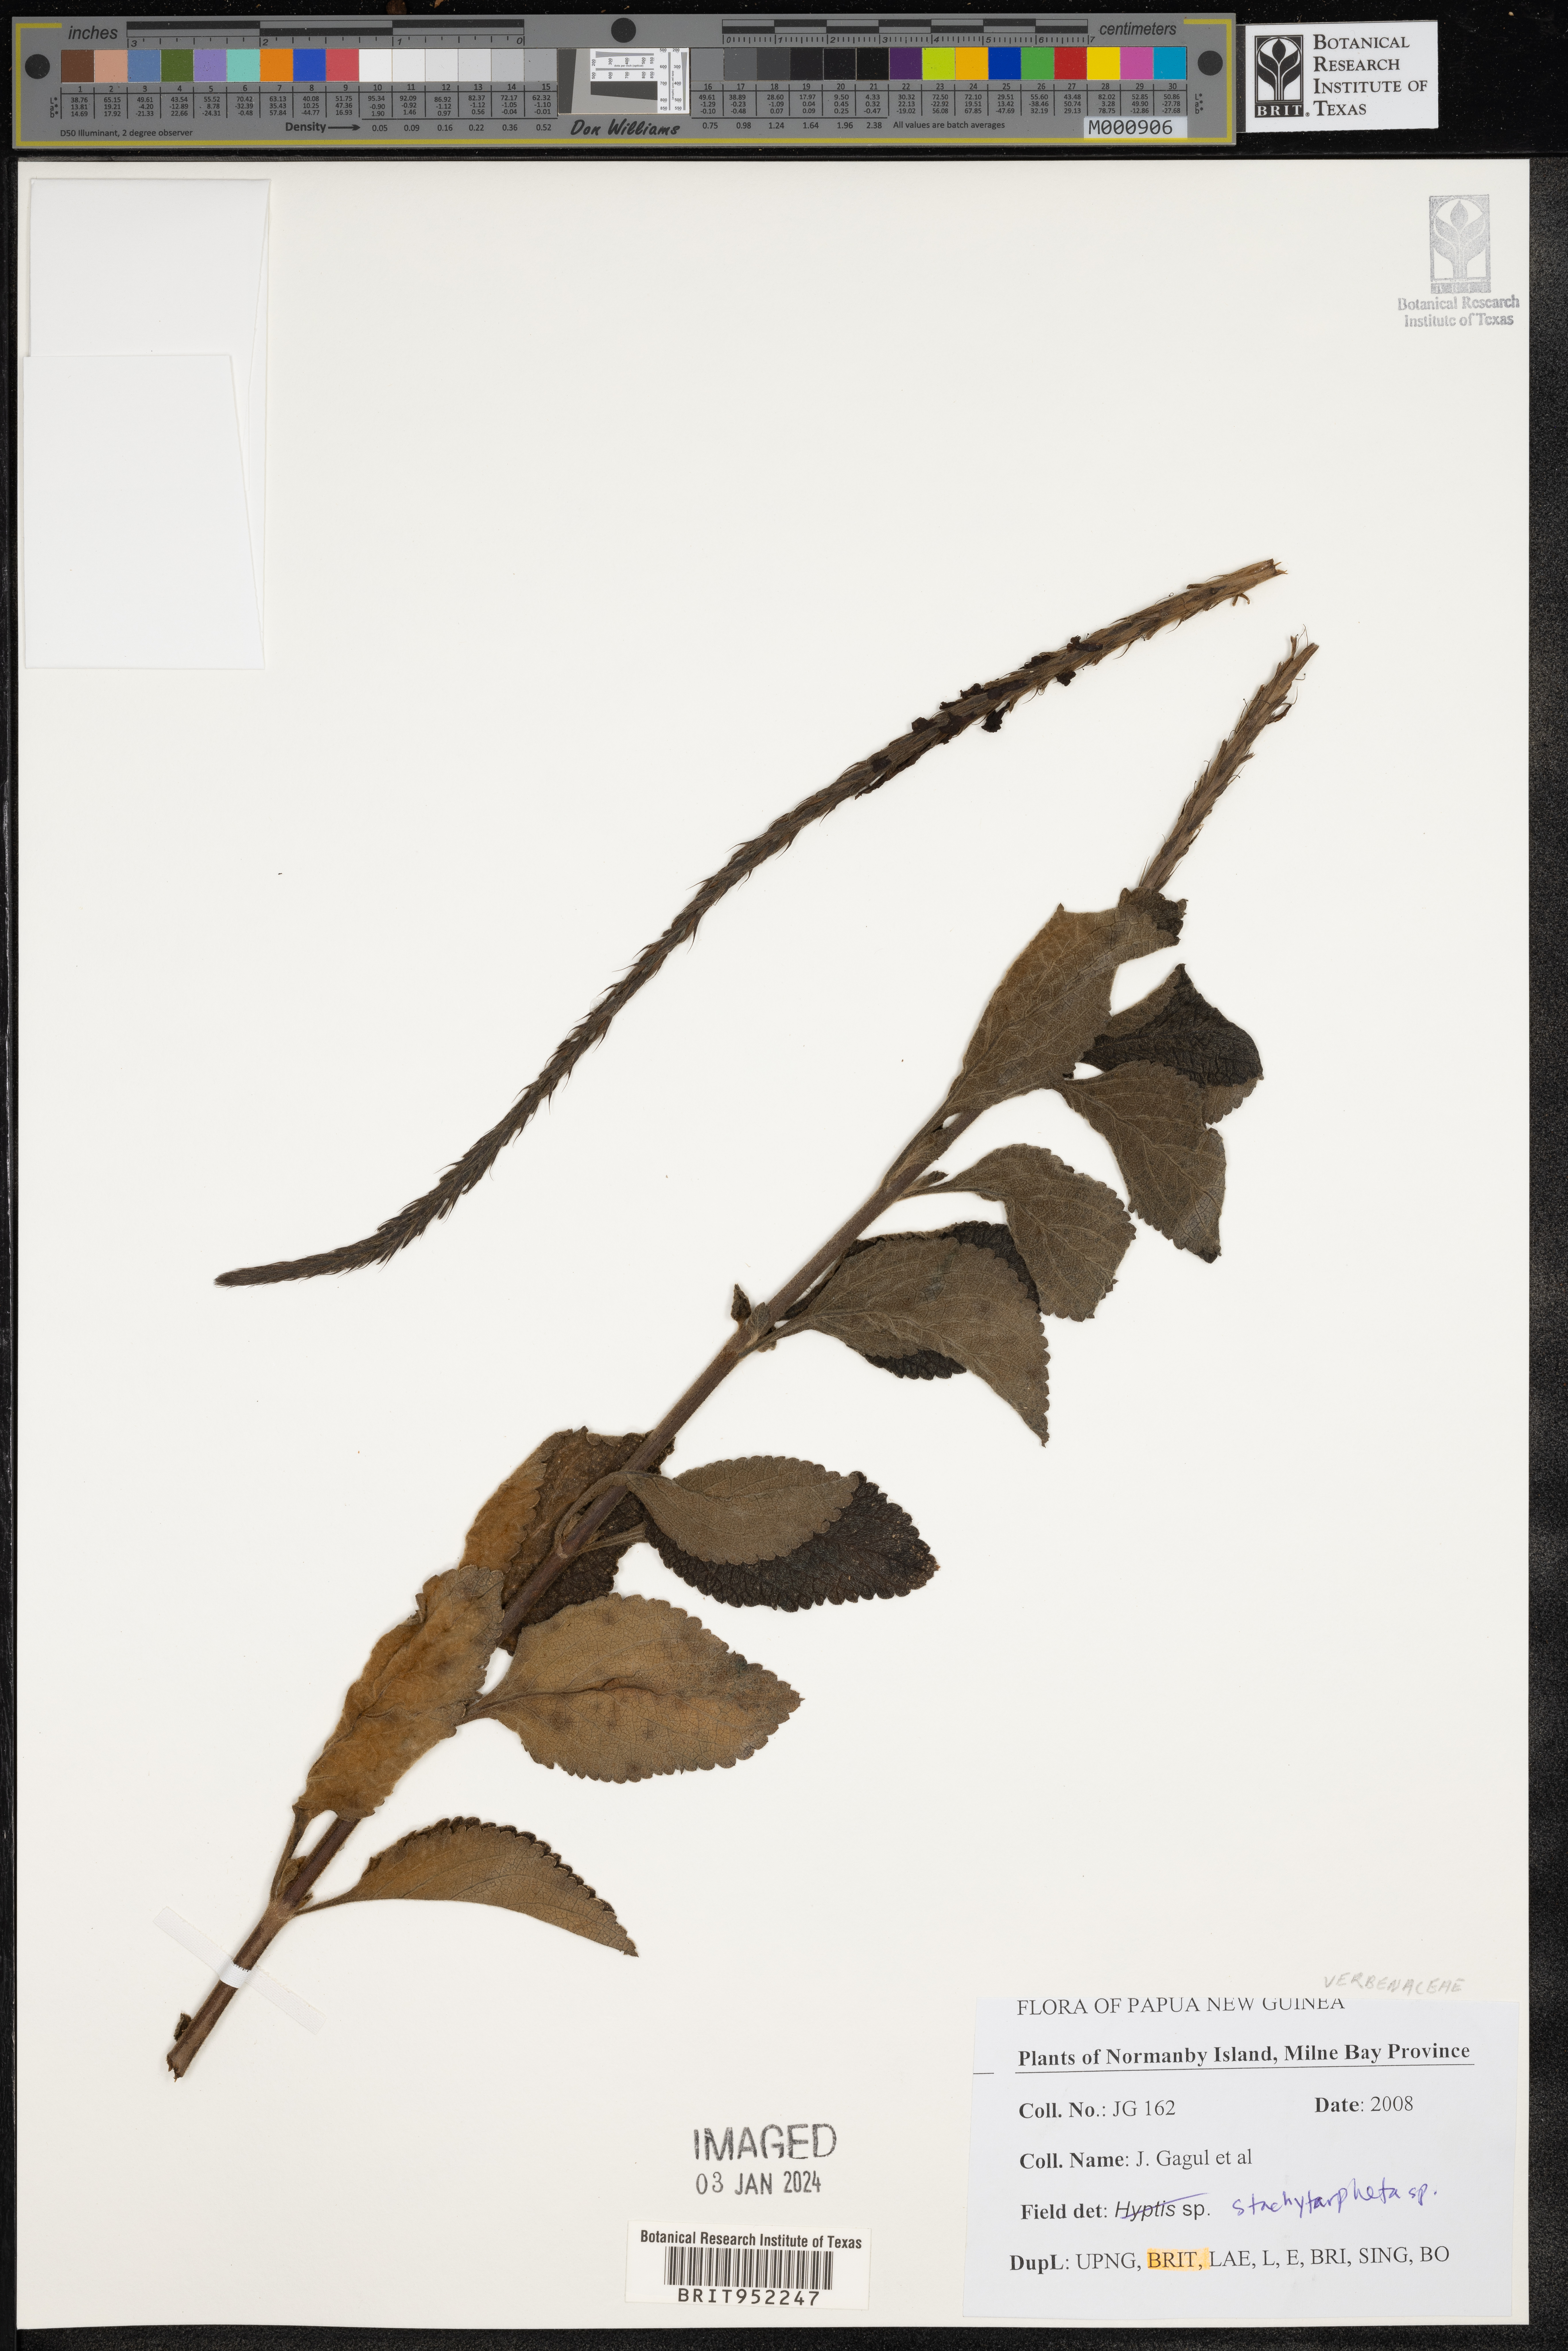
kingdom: Plantae
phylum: Tracheophyta
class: Magnoliopsida
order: Lamiales
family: Verbenaceae
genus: Stachytarpheta
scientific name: Stachytarpheta
